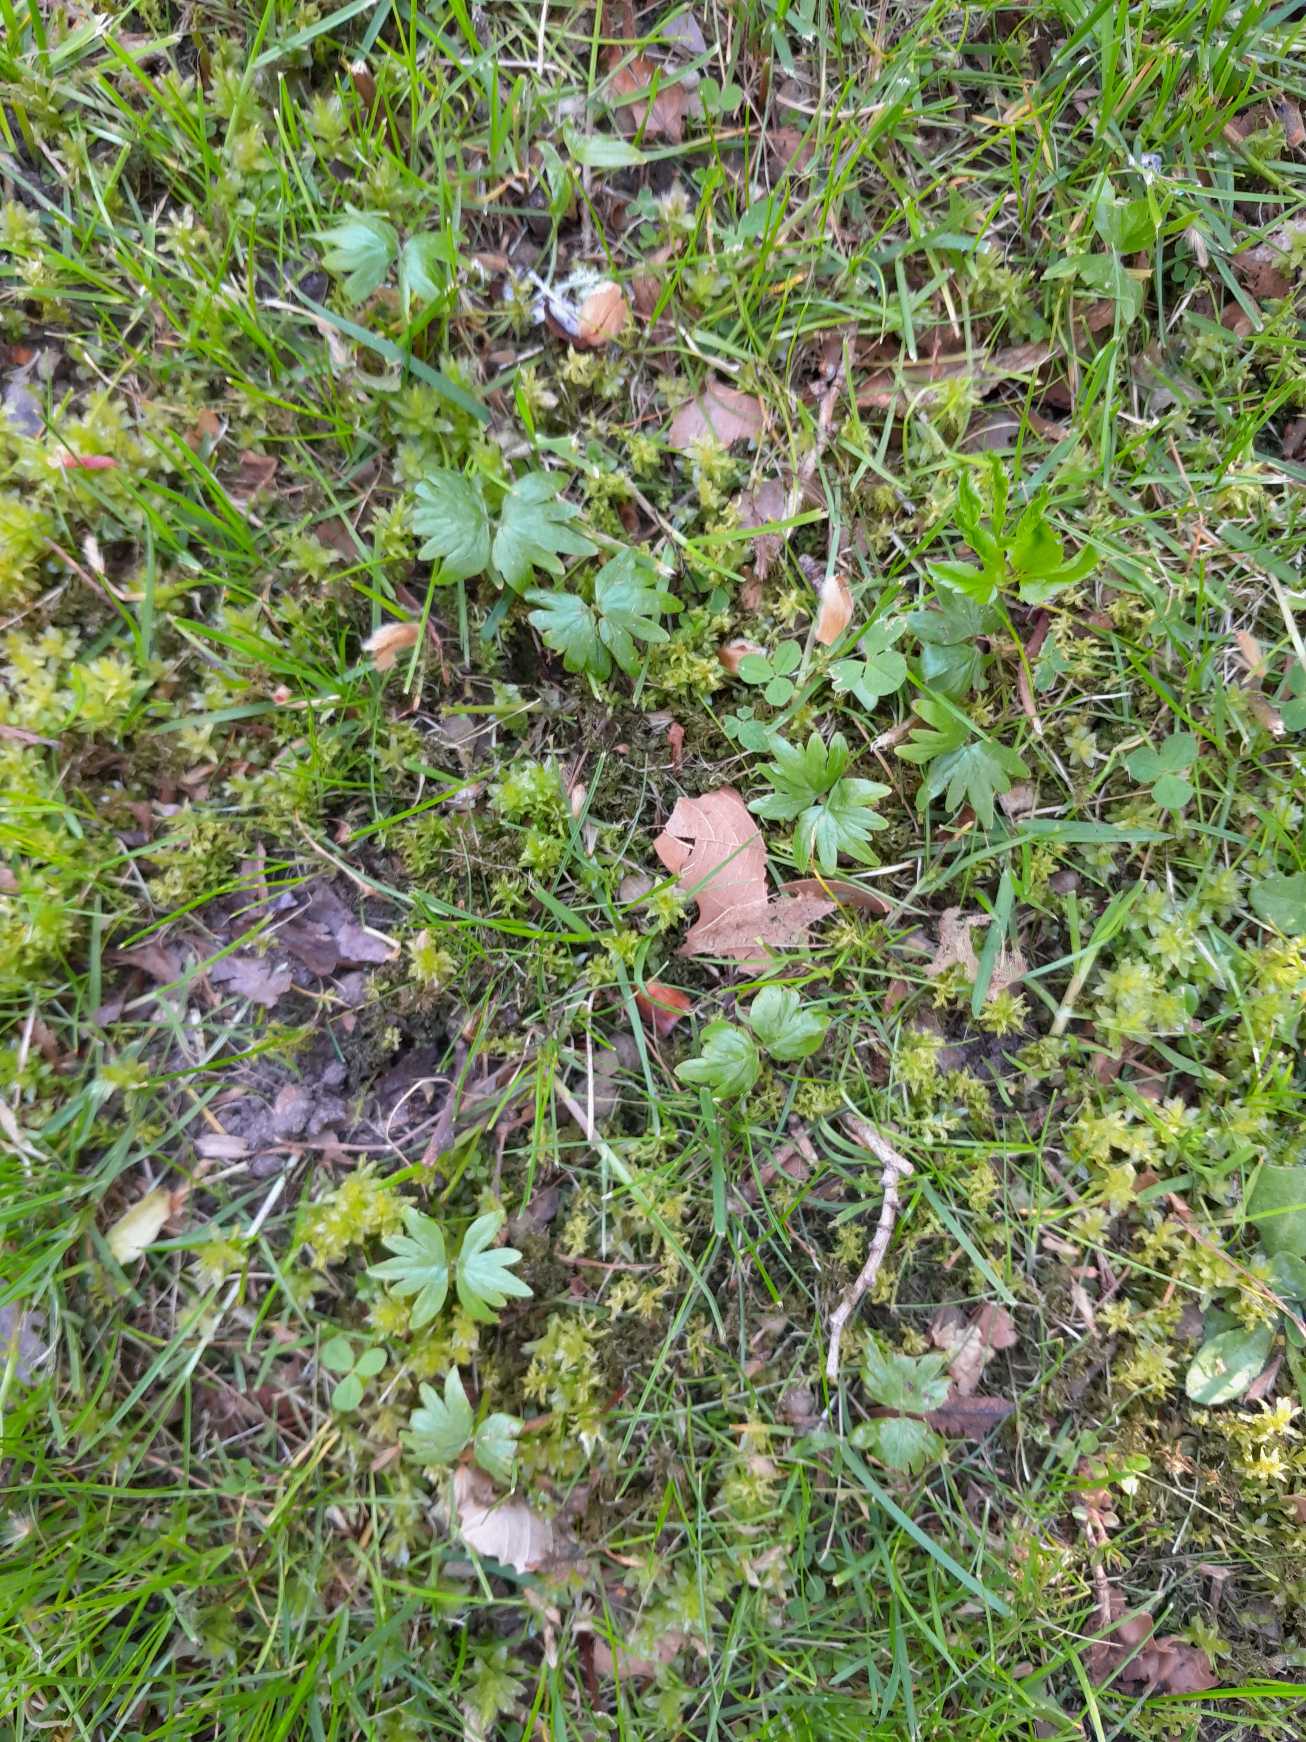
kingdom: Plantae
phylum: Tracheophyta
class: Magnoliopsida
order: Malvales
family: Malvaceae
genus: Tilia
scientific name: Tilia platyphyllos
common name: Storbladet lind
